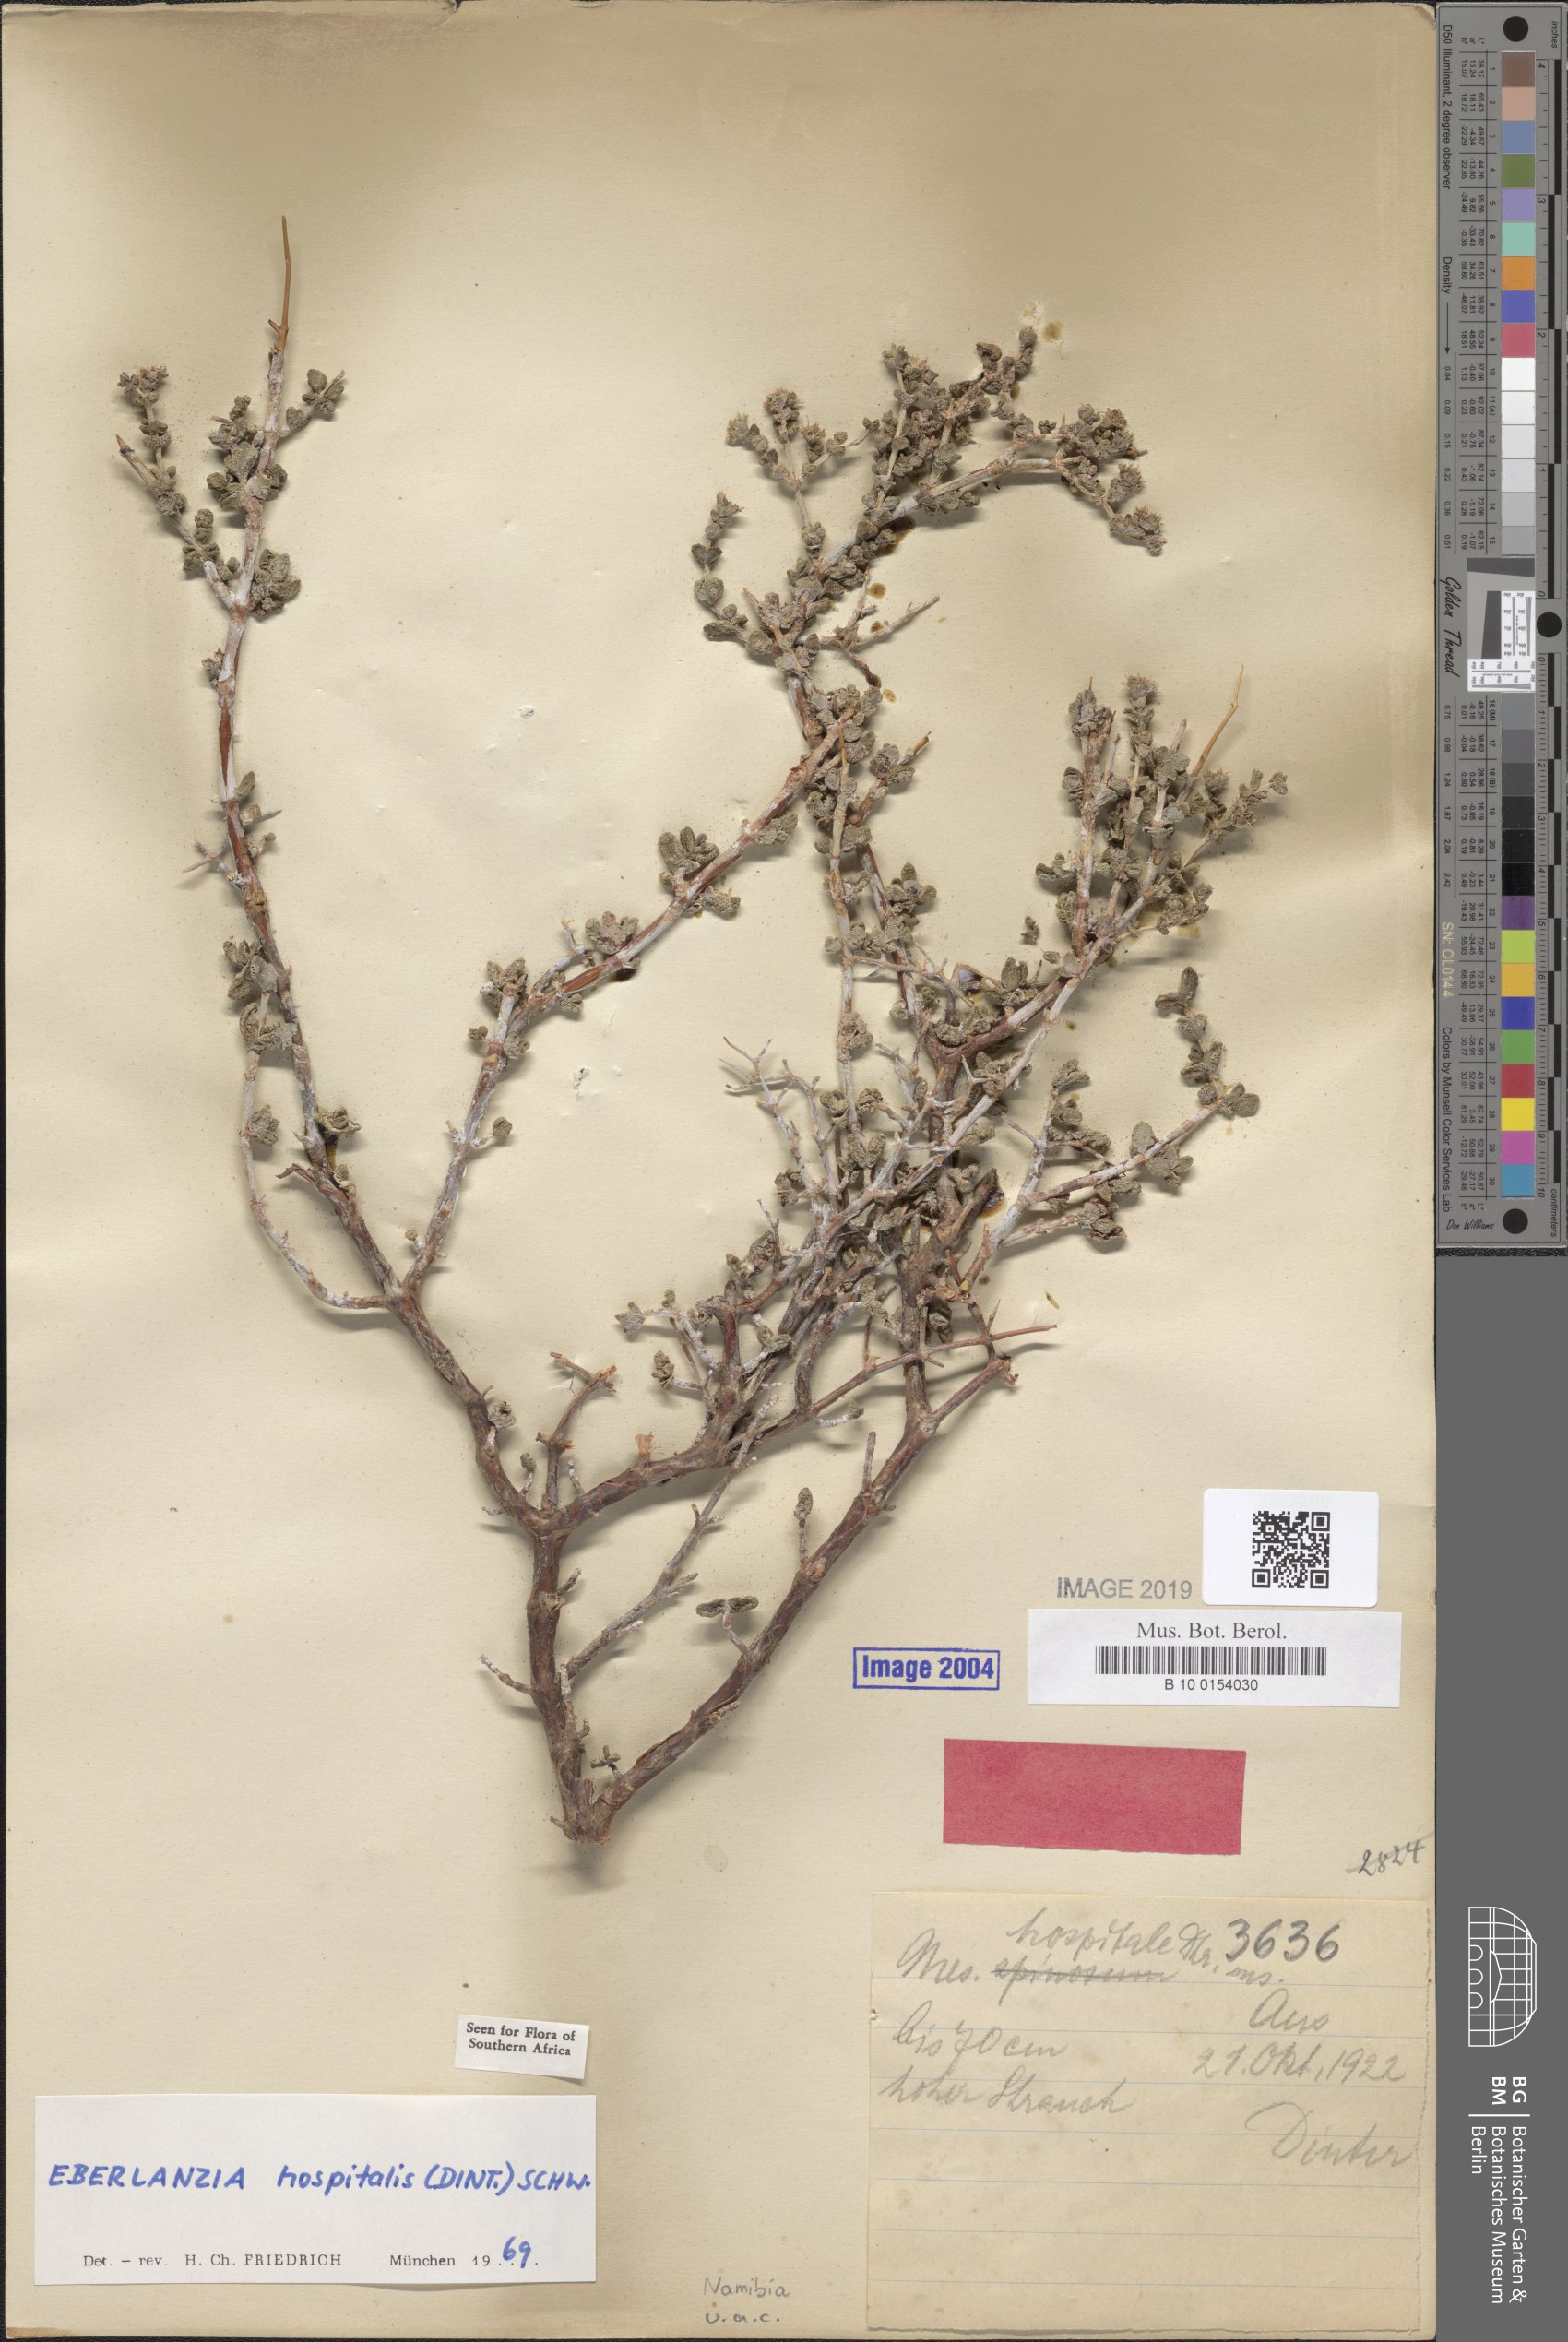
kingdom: Plantae
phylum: Tracheophyta
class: Magnoliopsida
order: Caryophyllales
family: Aizoaceae
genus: Ruschia
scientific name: Ruschia spinosa
